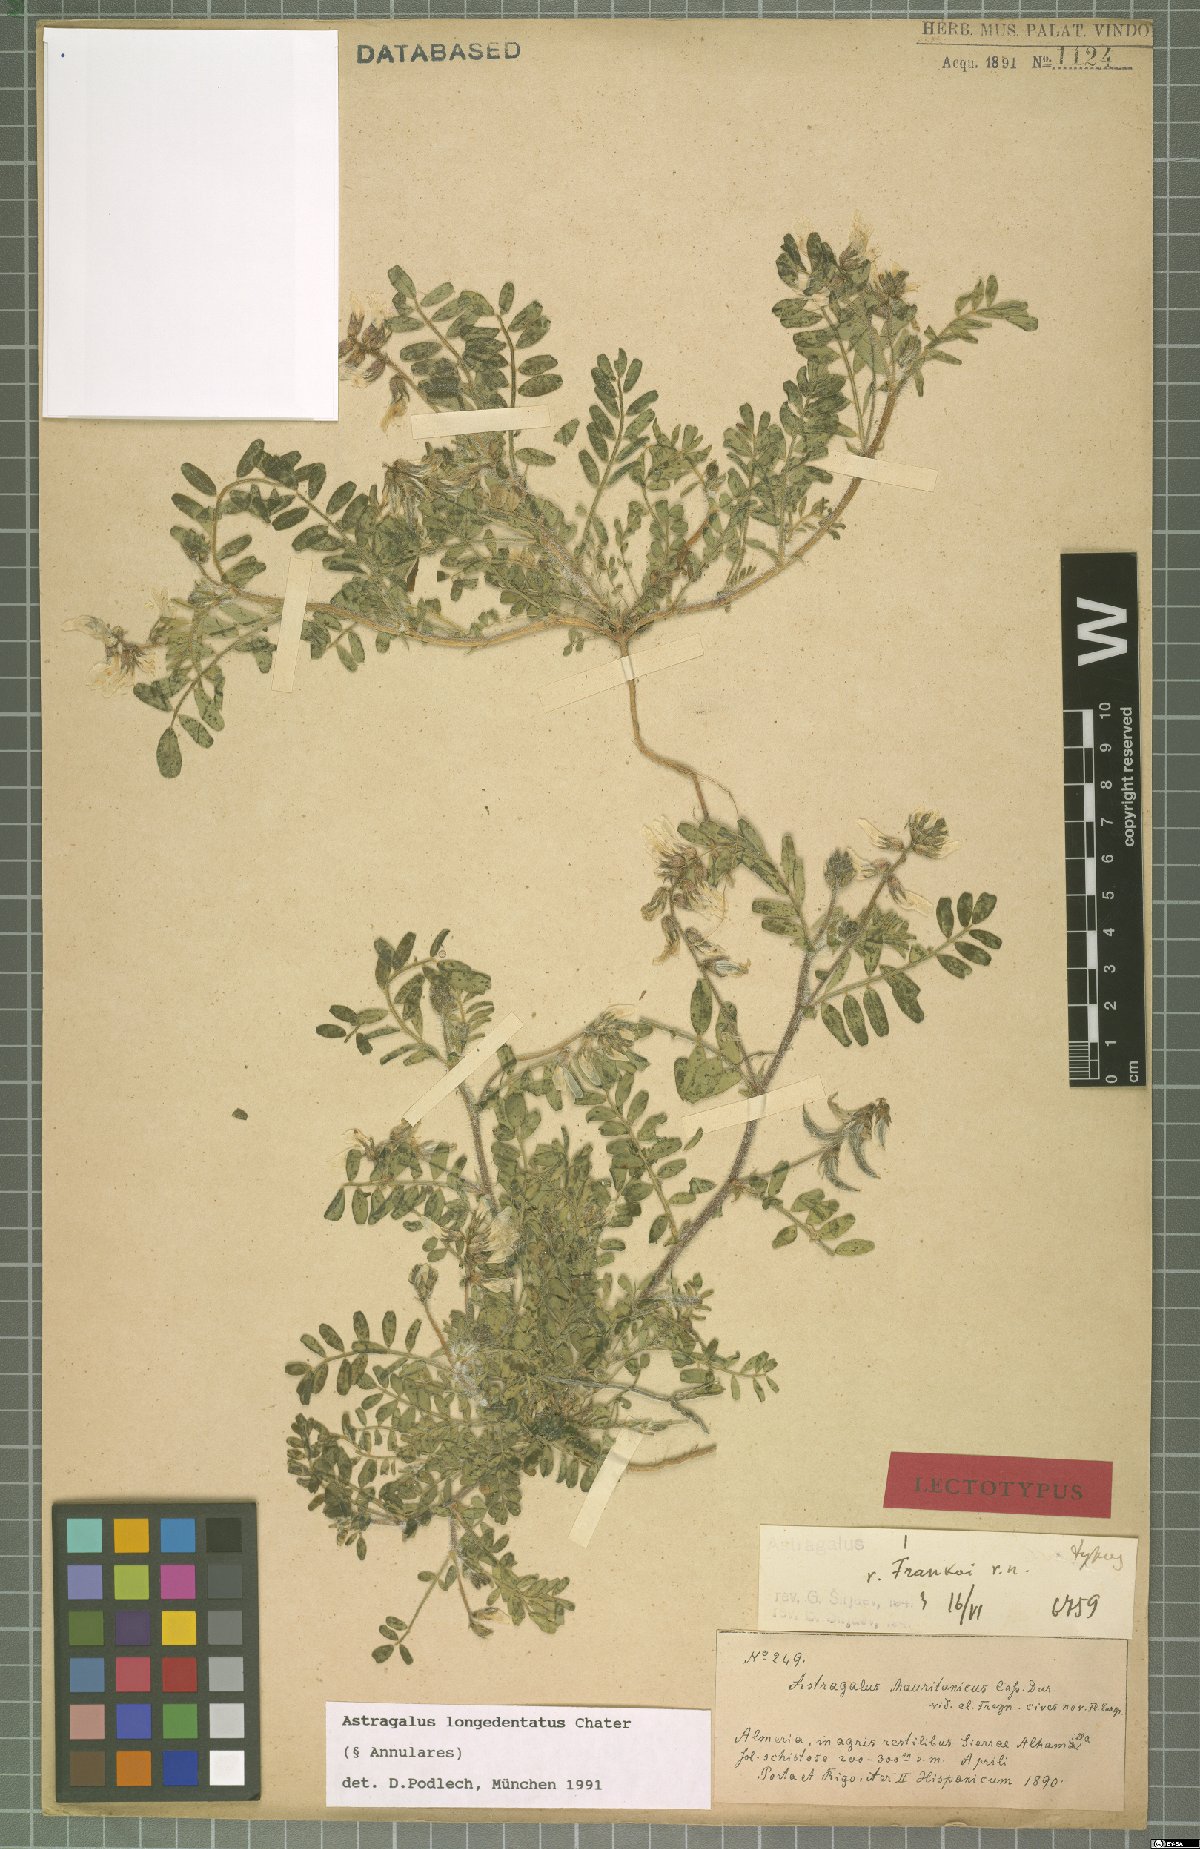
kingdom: Plantae
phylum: Tracheophyta
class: Magnoliopsida
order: Fabales
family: Fabaceae
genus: Astragalus
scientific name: Astragalus longidentatus
